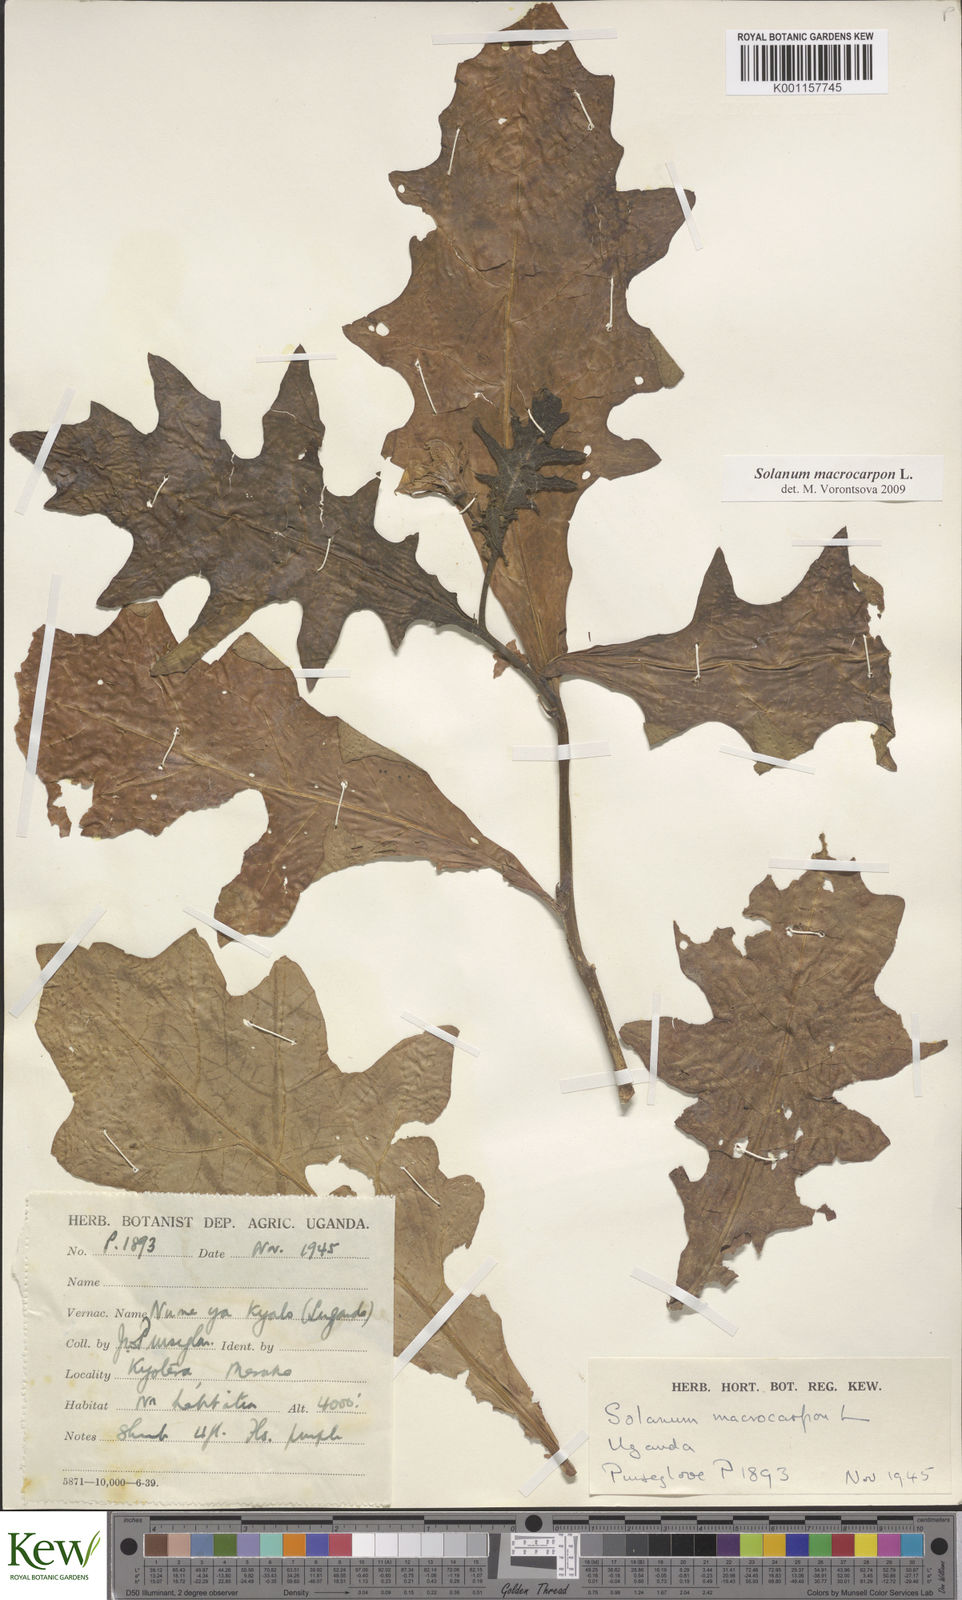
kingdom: Plantae
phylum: Tracheophyta
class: Magnoliopsida
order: Solanales
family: Solanaceae
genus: Solanum
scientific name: Solanum macrocarpon
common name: African eggplant
